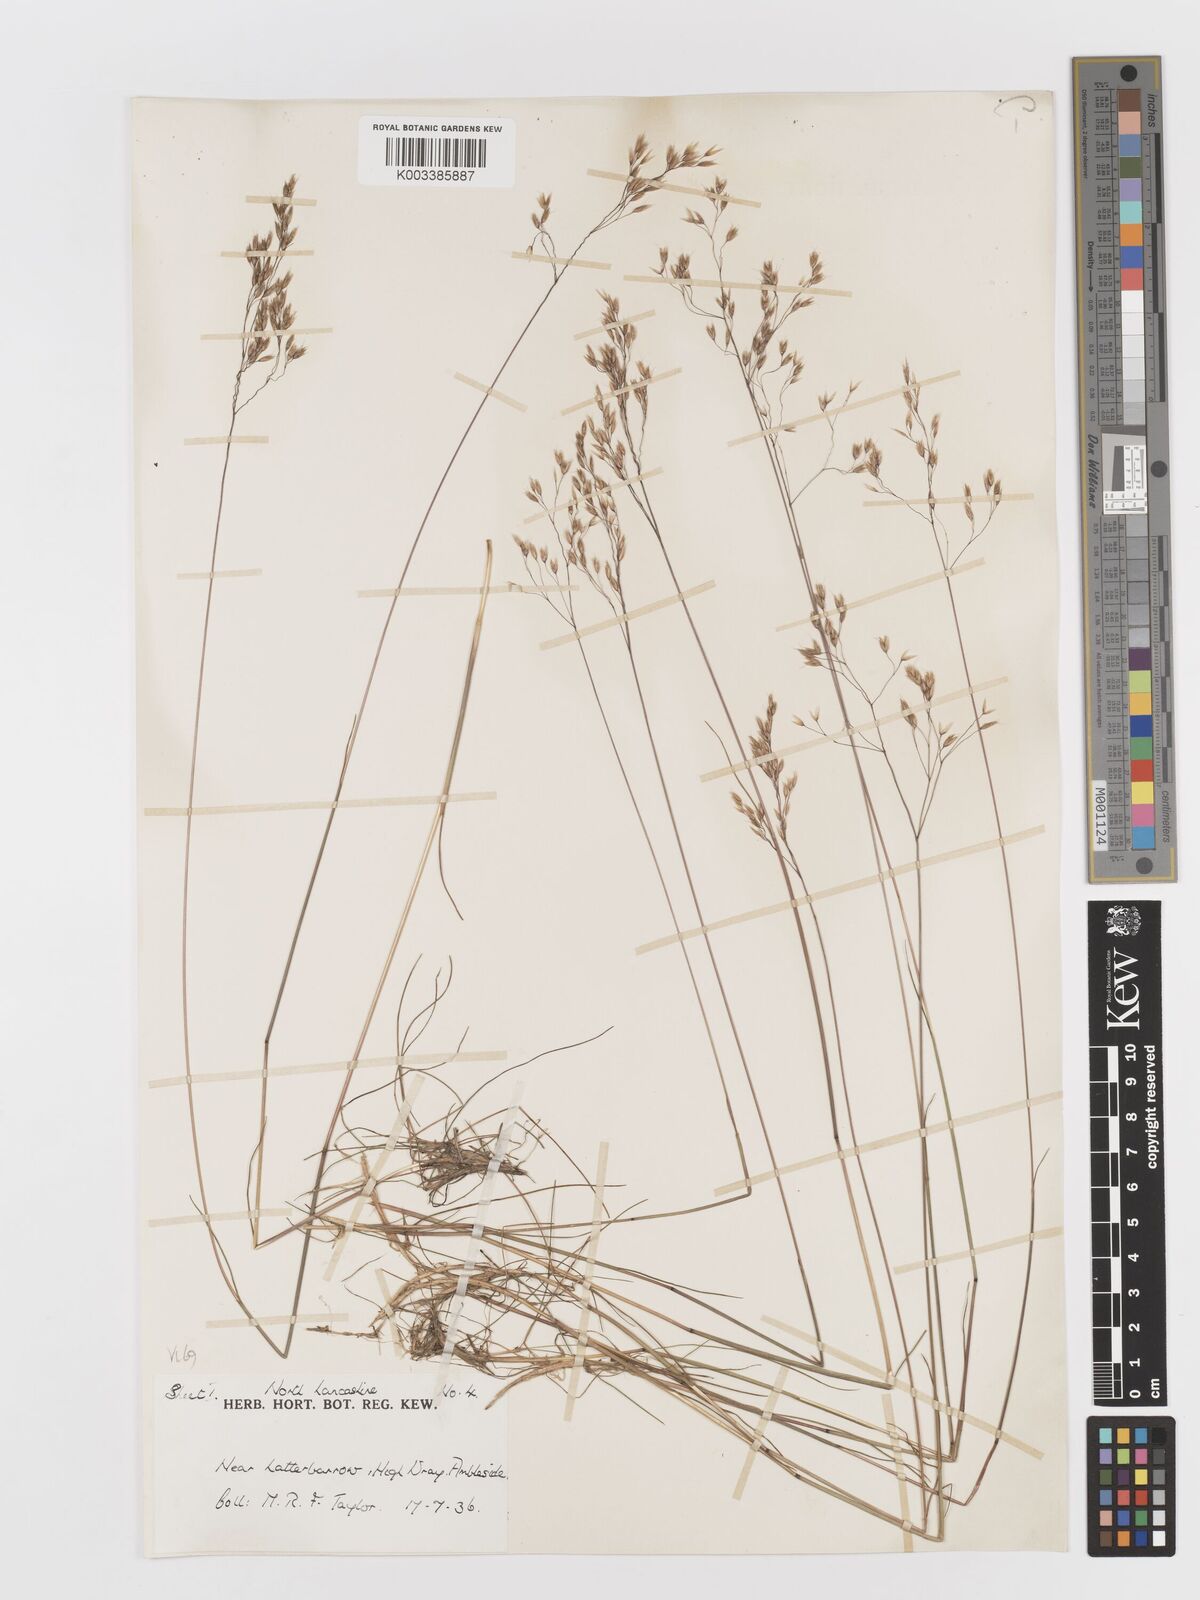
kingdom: Plantae
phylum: Tracheophyta
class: Liliopsida
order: Poales
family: Poaceae
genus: Avenella
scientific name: Avenella flexuosa
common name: Wavy hairgrass
